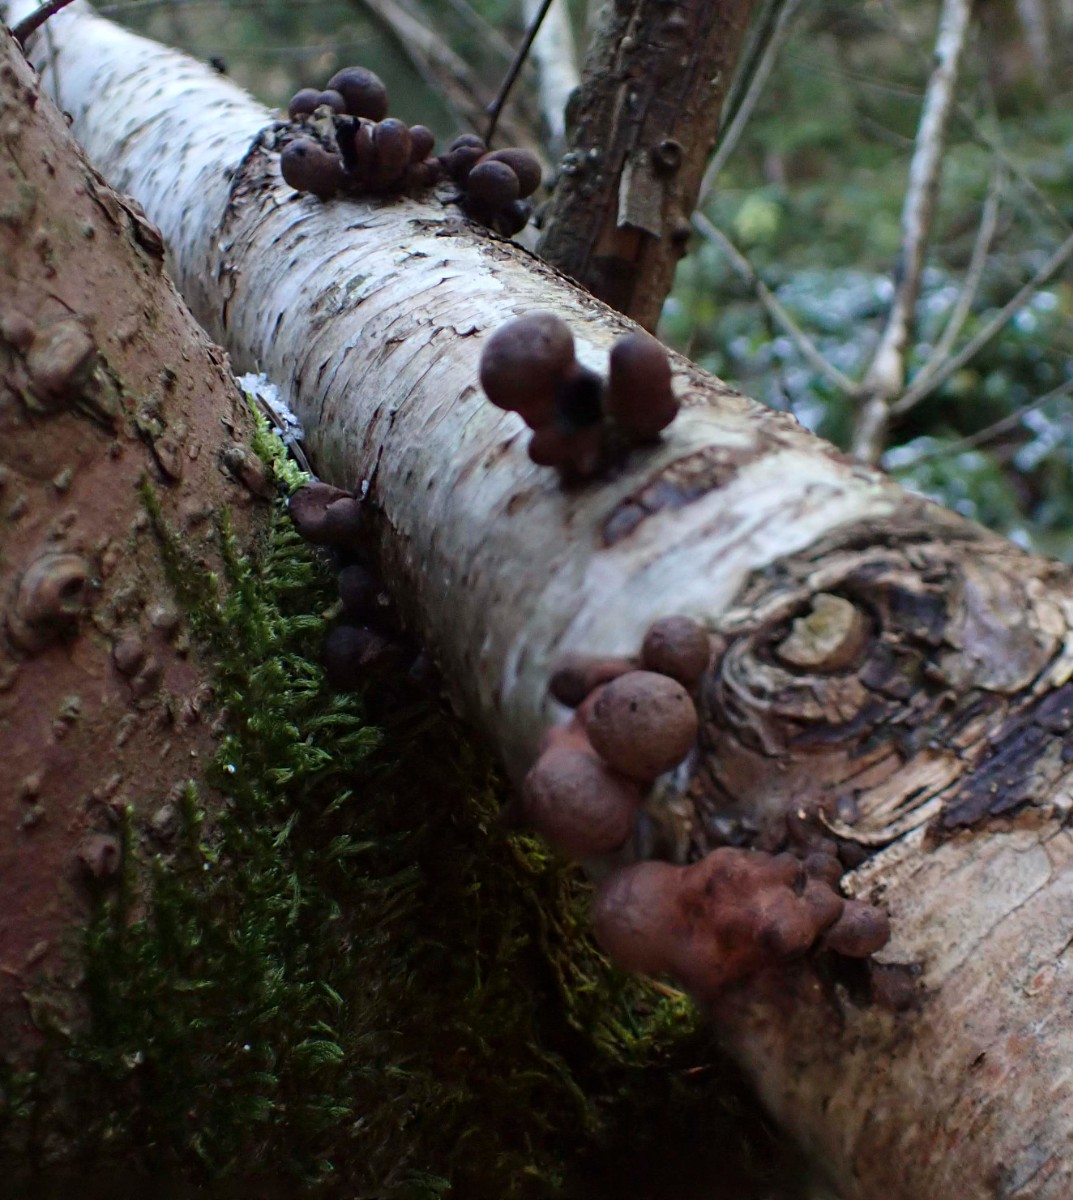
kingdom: Fungi
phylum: Ascomycota
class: Sordariomycetes
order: Xylariales
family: Hypoxylaceae
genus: Daldinia
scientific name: Daldinia decipiens
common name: stilket bæltekugle
